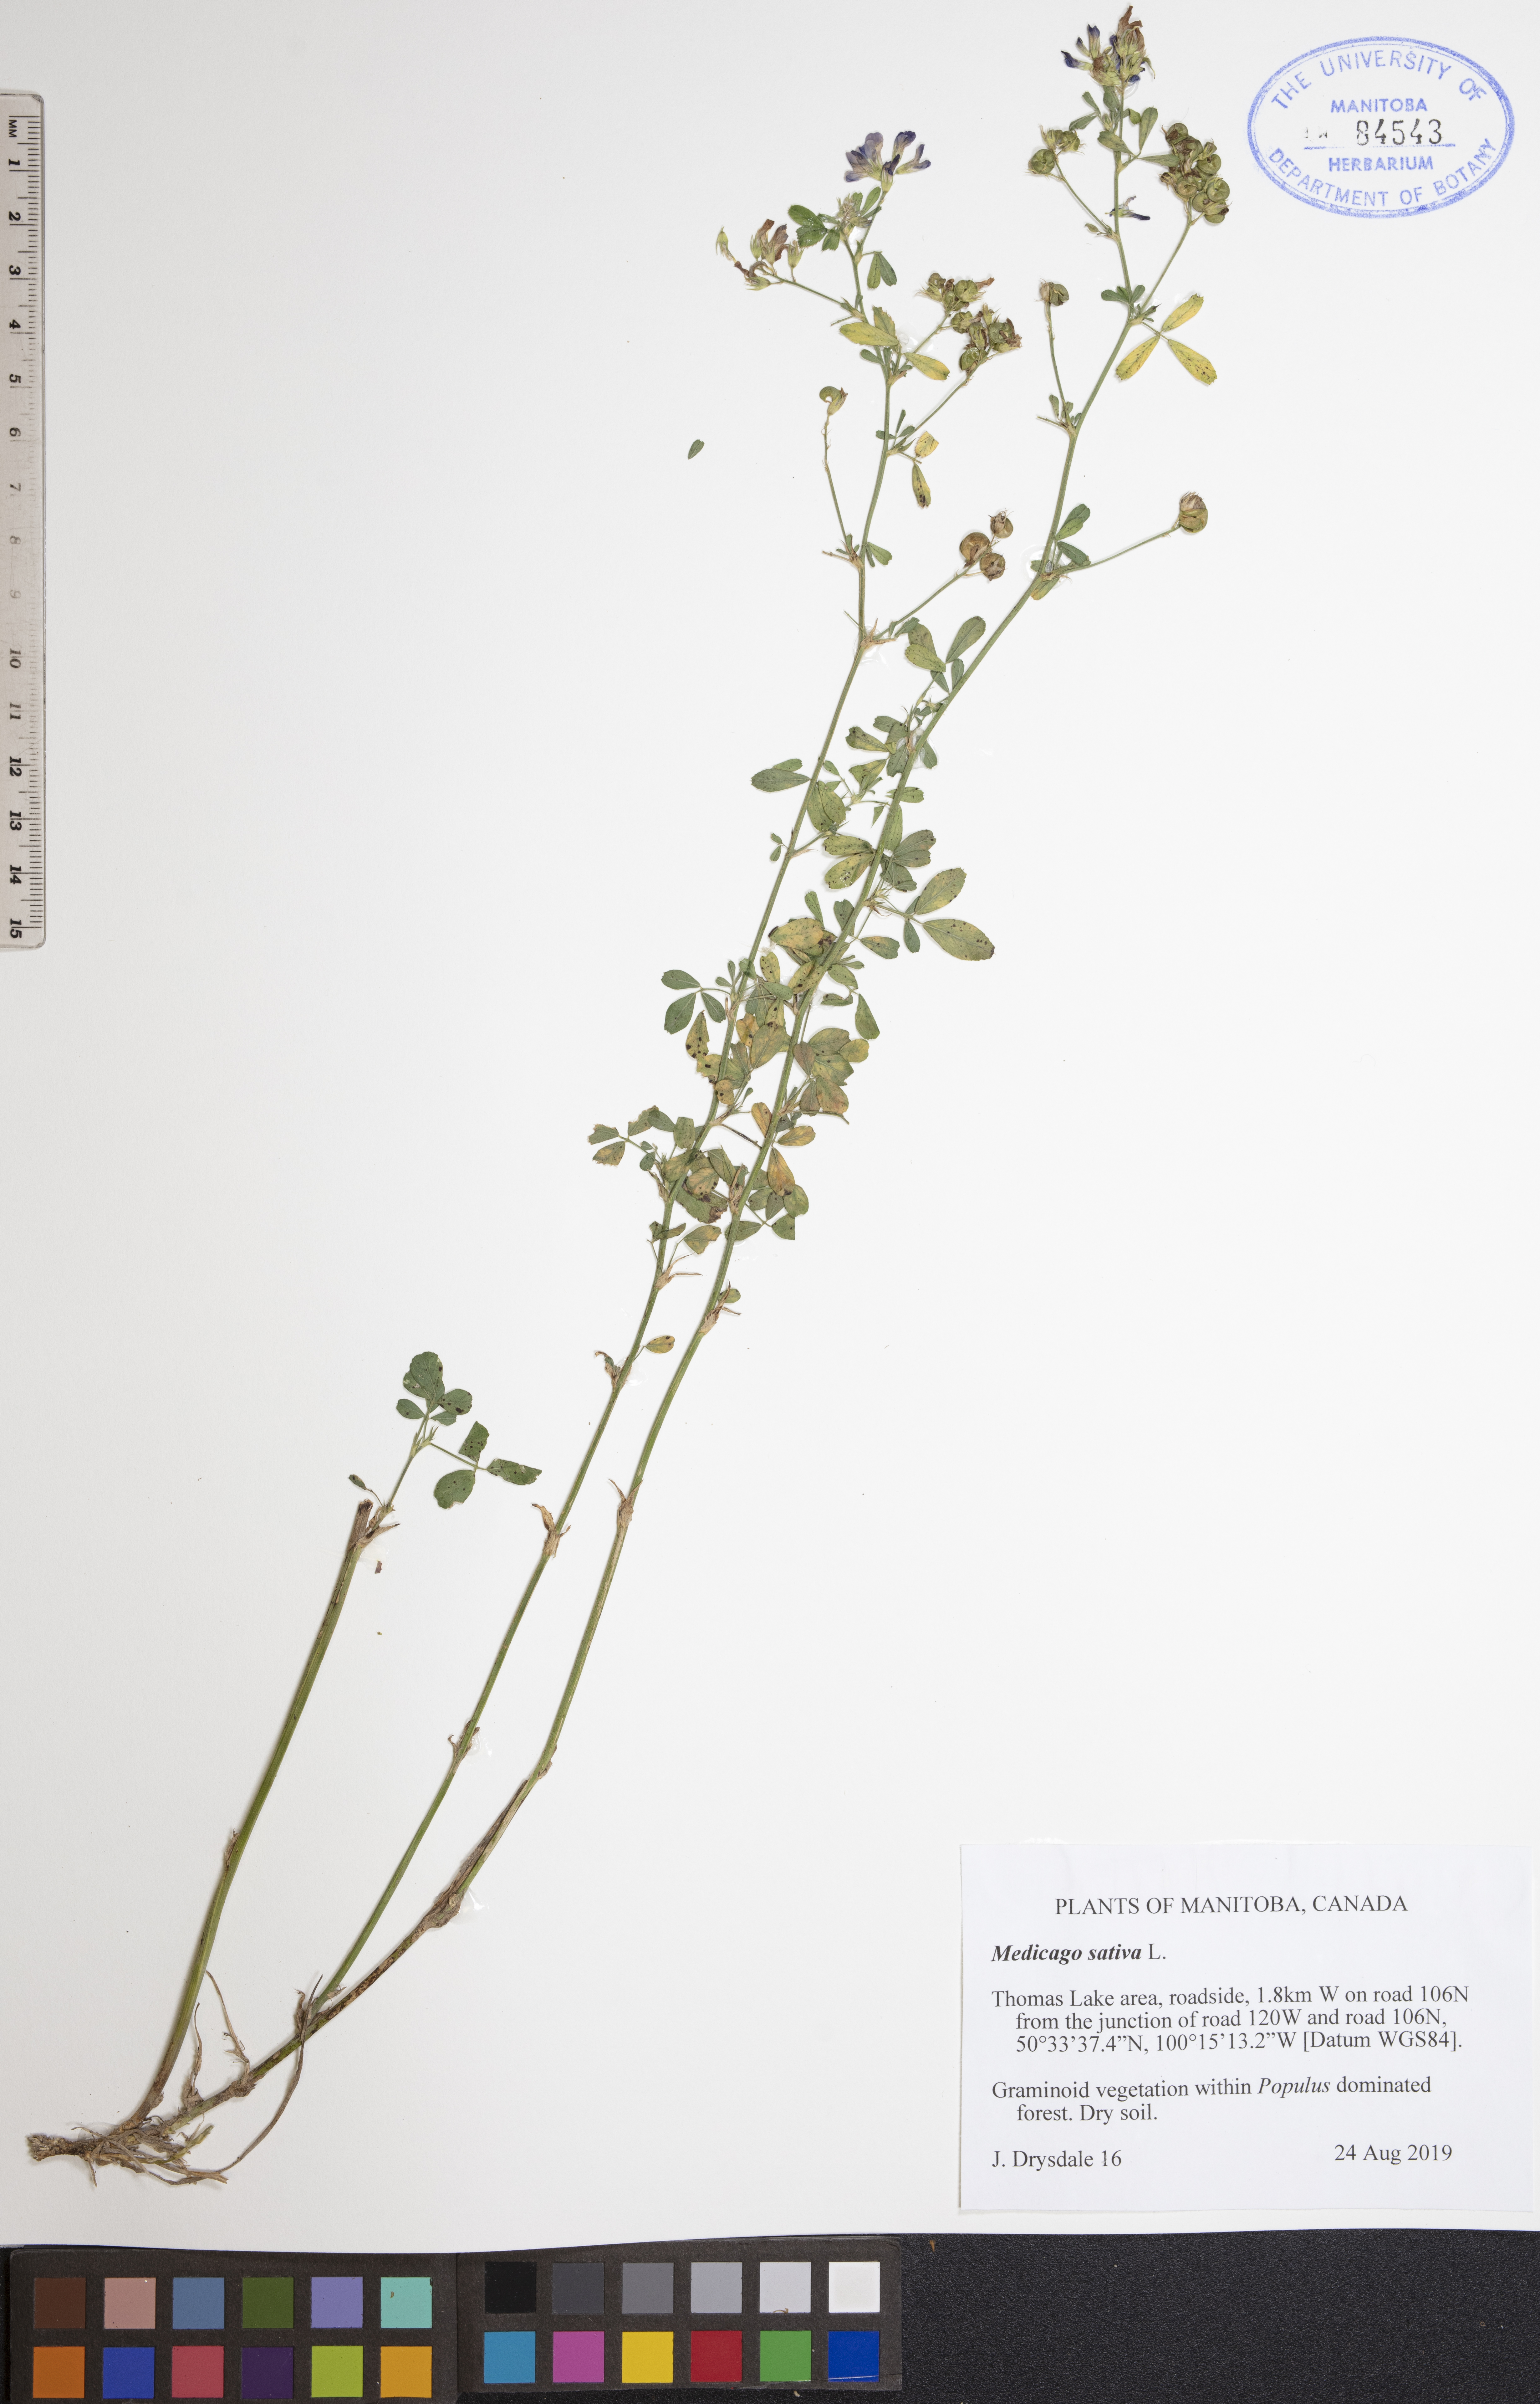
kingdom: Plantae
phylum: Tracheophyta
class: Magnoliopsida
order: Fabales
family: Fabaceae
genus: Medicago
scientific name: Medicago sativa
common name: Alfalfa
